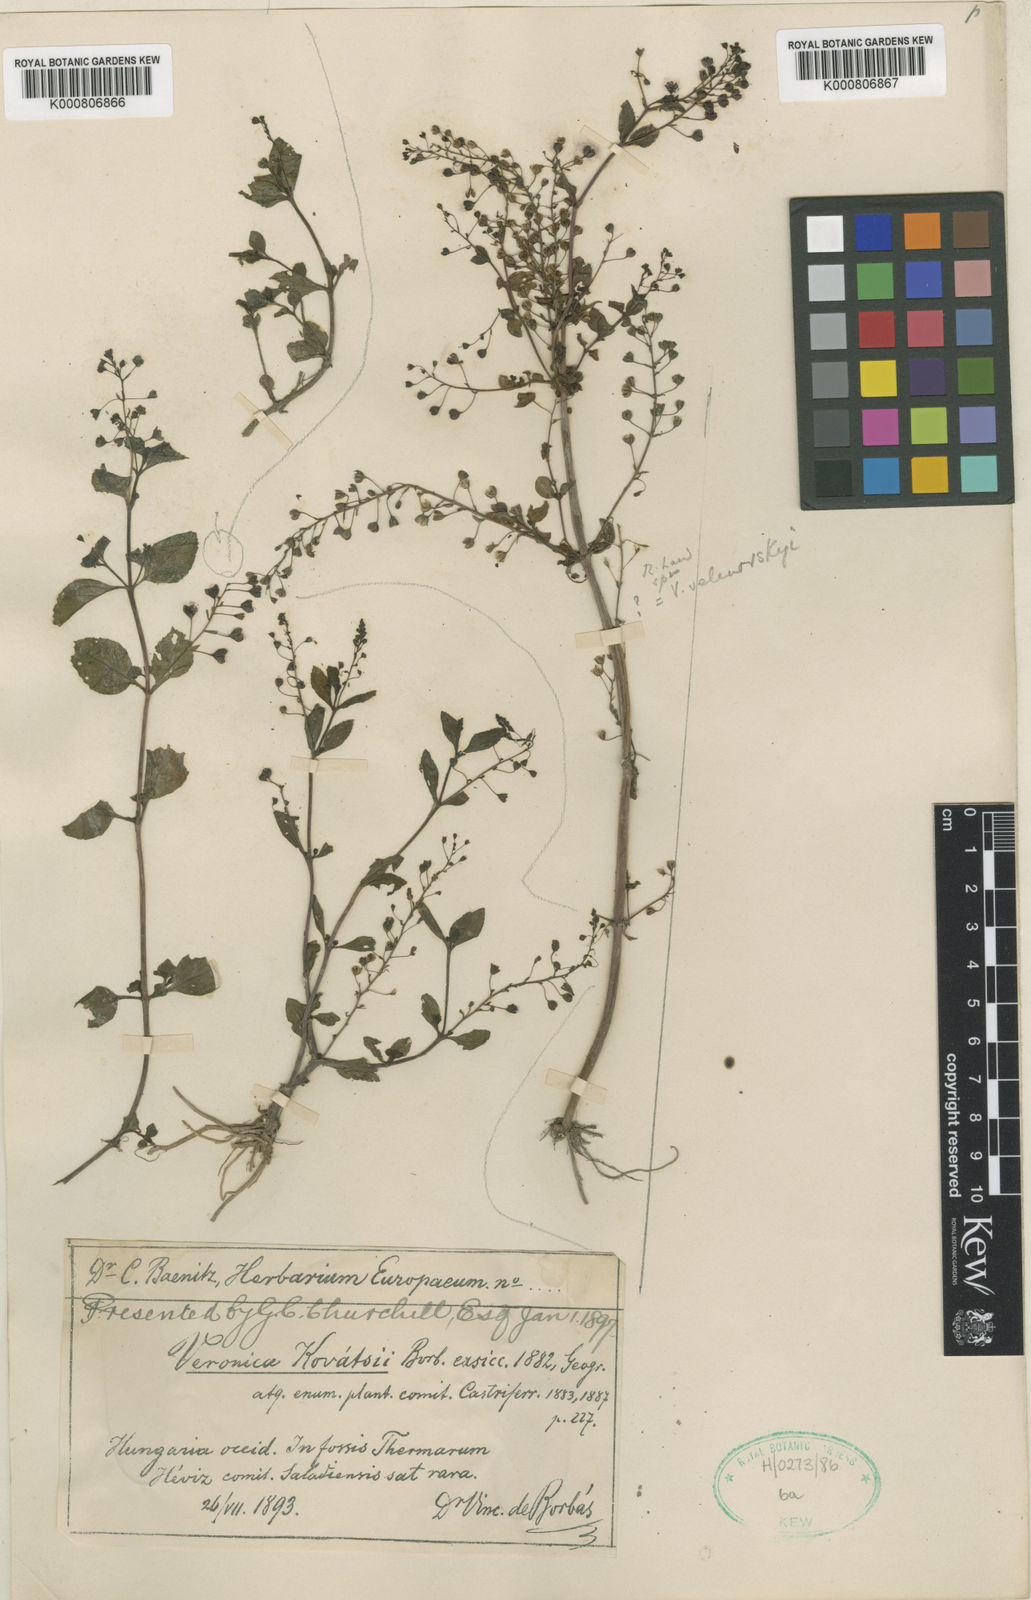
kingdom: Plantae
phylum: Tracheophyta
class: Magnoliopsida
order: Lamiales
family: Plantaginaceae
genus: Veronica
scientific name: Veronica scardica
